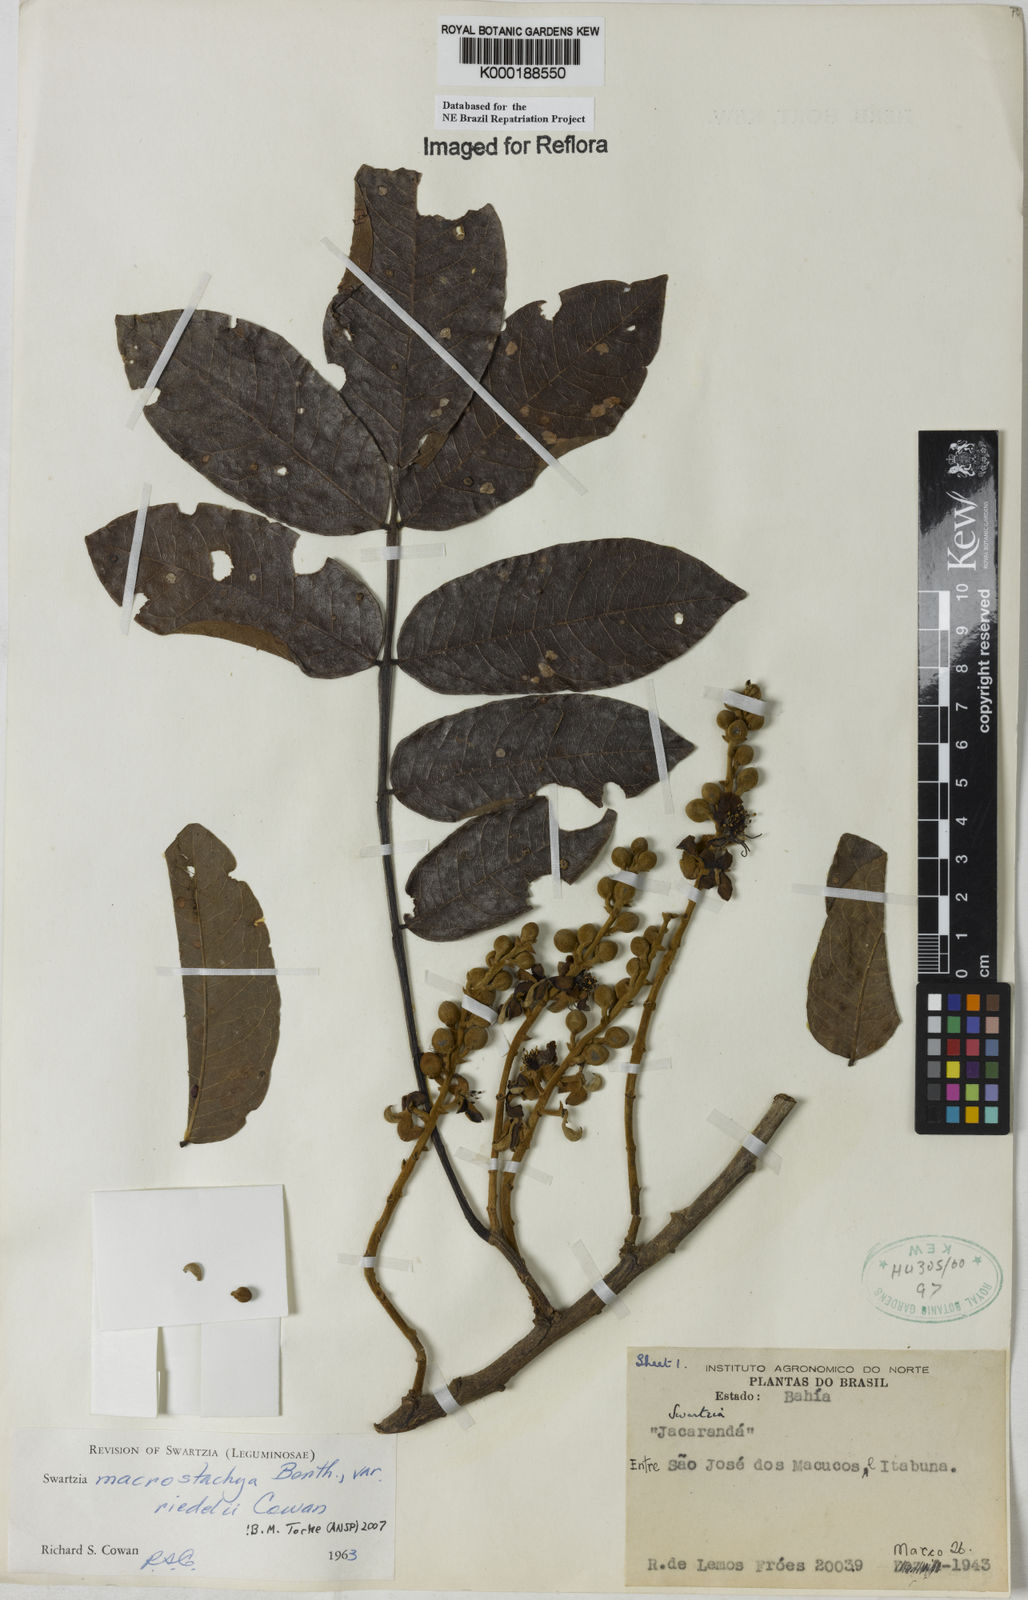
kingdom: Plantae
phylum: Tracheophyta
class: Magnoliopsida
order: Fabales
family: Fabaceae
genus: Swartzia
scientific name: Swartzia macrostachya
